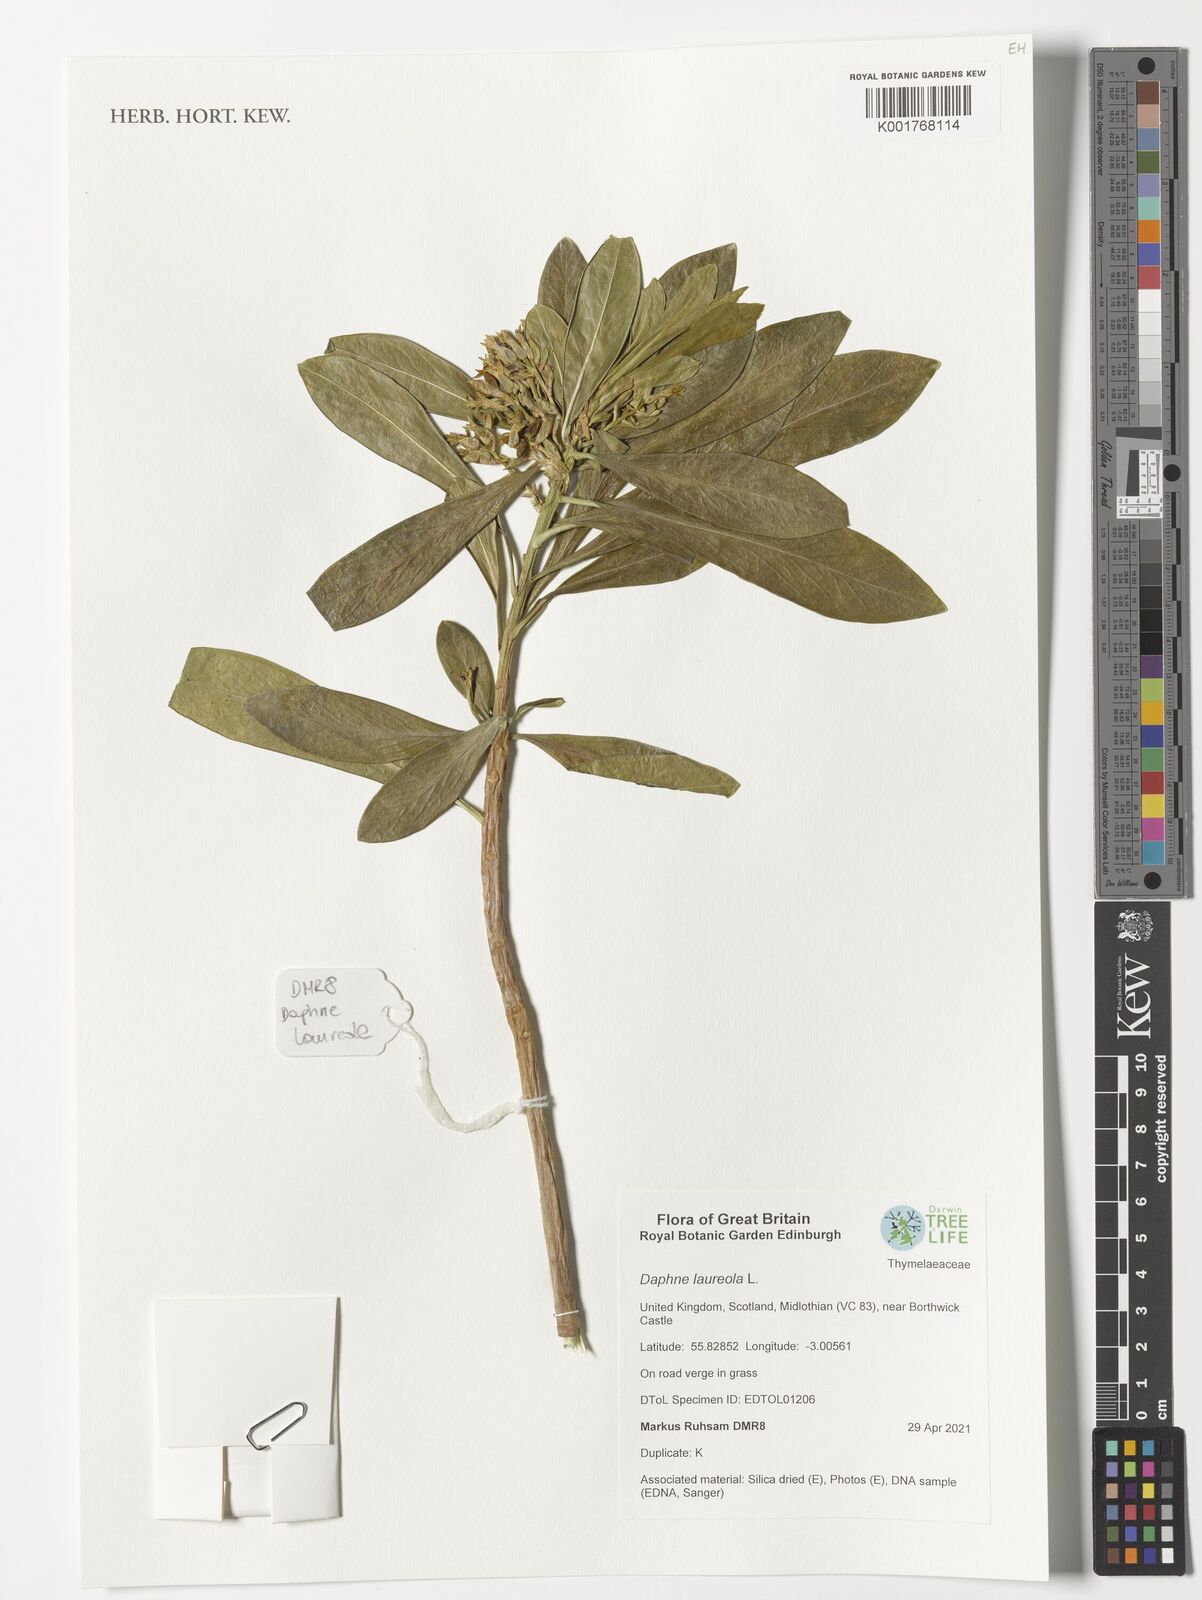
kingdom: Plantae
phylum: Tracheophyta
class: Magnoliopsida
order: Malvales
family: Thymelaeaceae
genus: Daphne
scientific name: Daphne laureola
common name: Spurge-laurel
